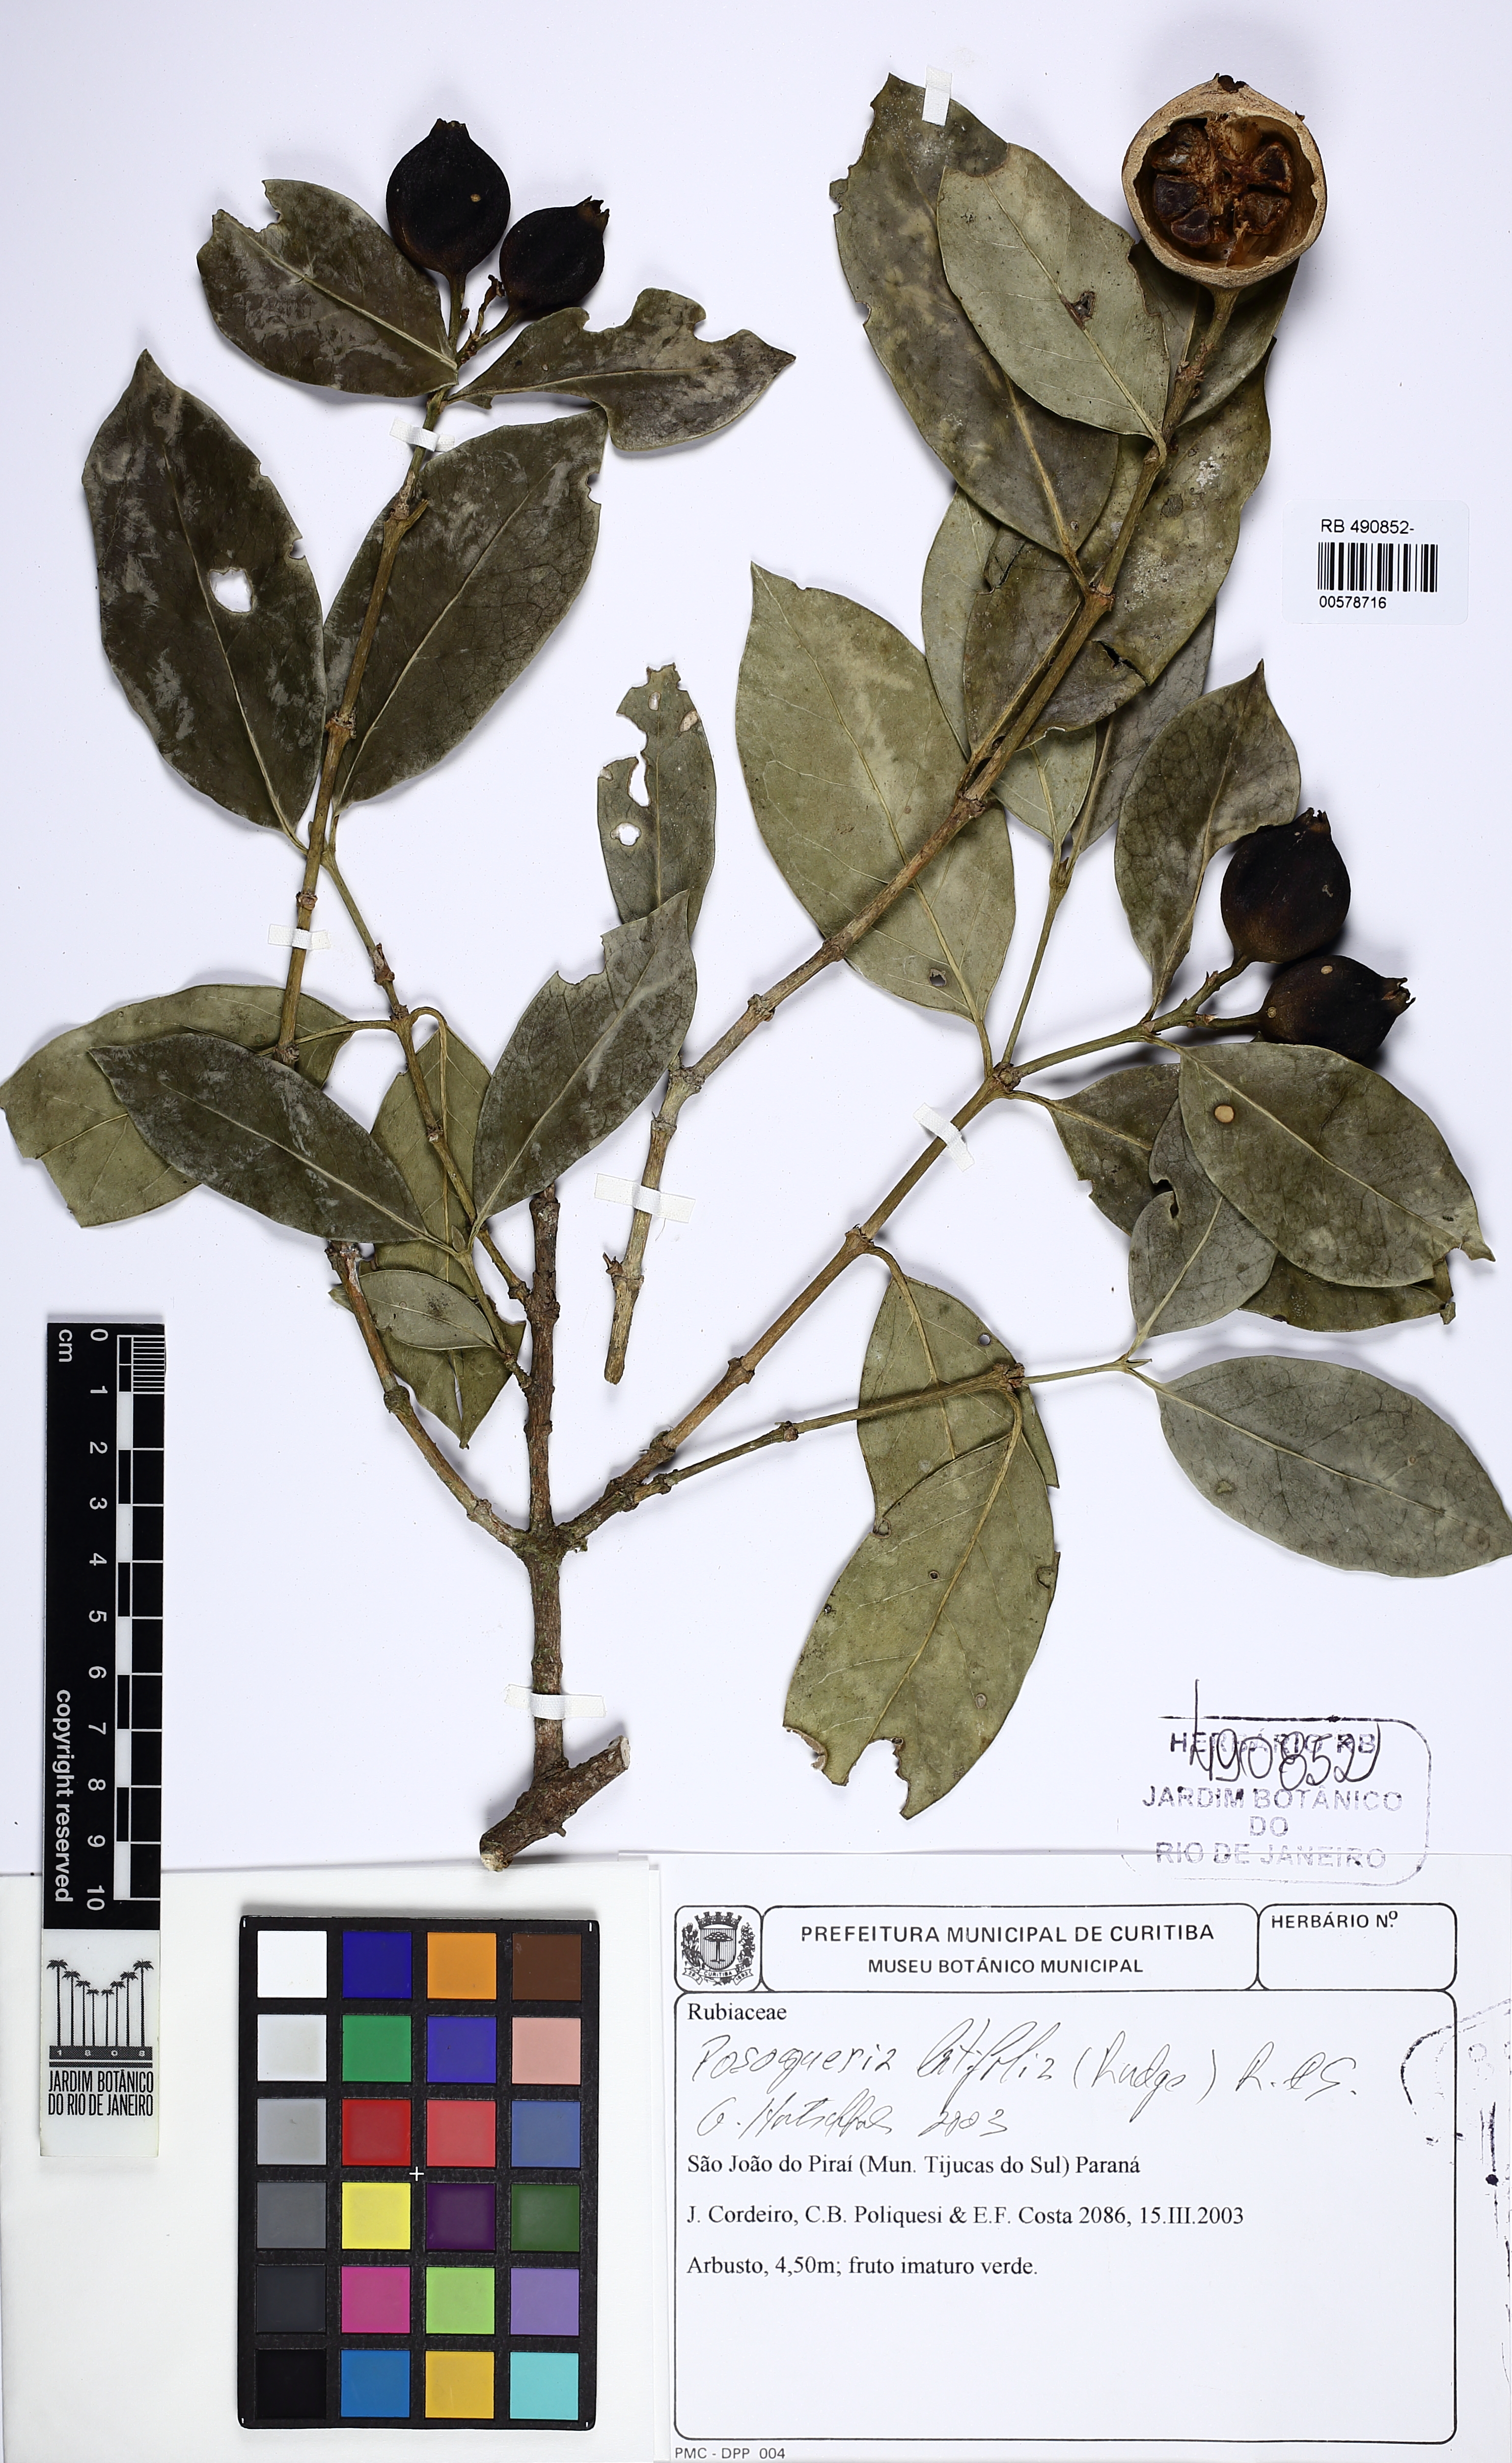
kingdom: Plantae
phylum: Tracheophyta
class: Magnoliopsida
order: Gentianales
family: Rubiaceae
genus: Posoqueria
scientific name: Posoqueria latifolia
